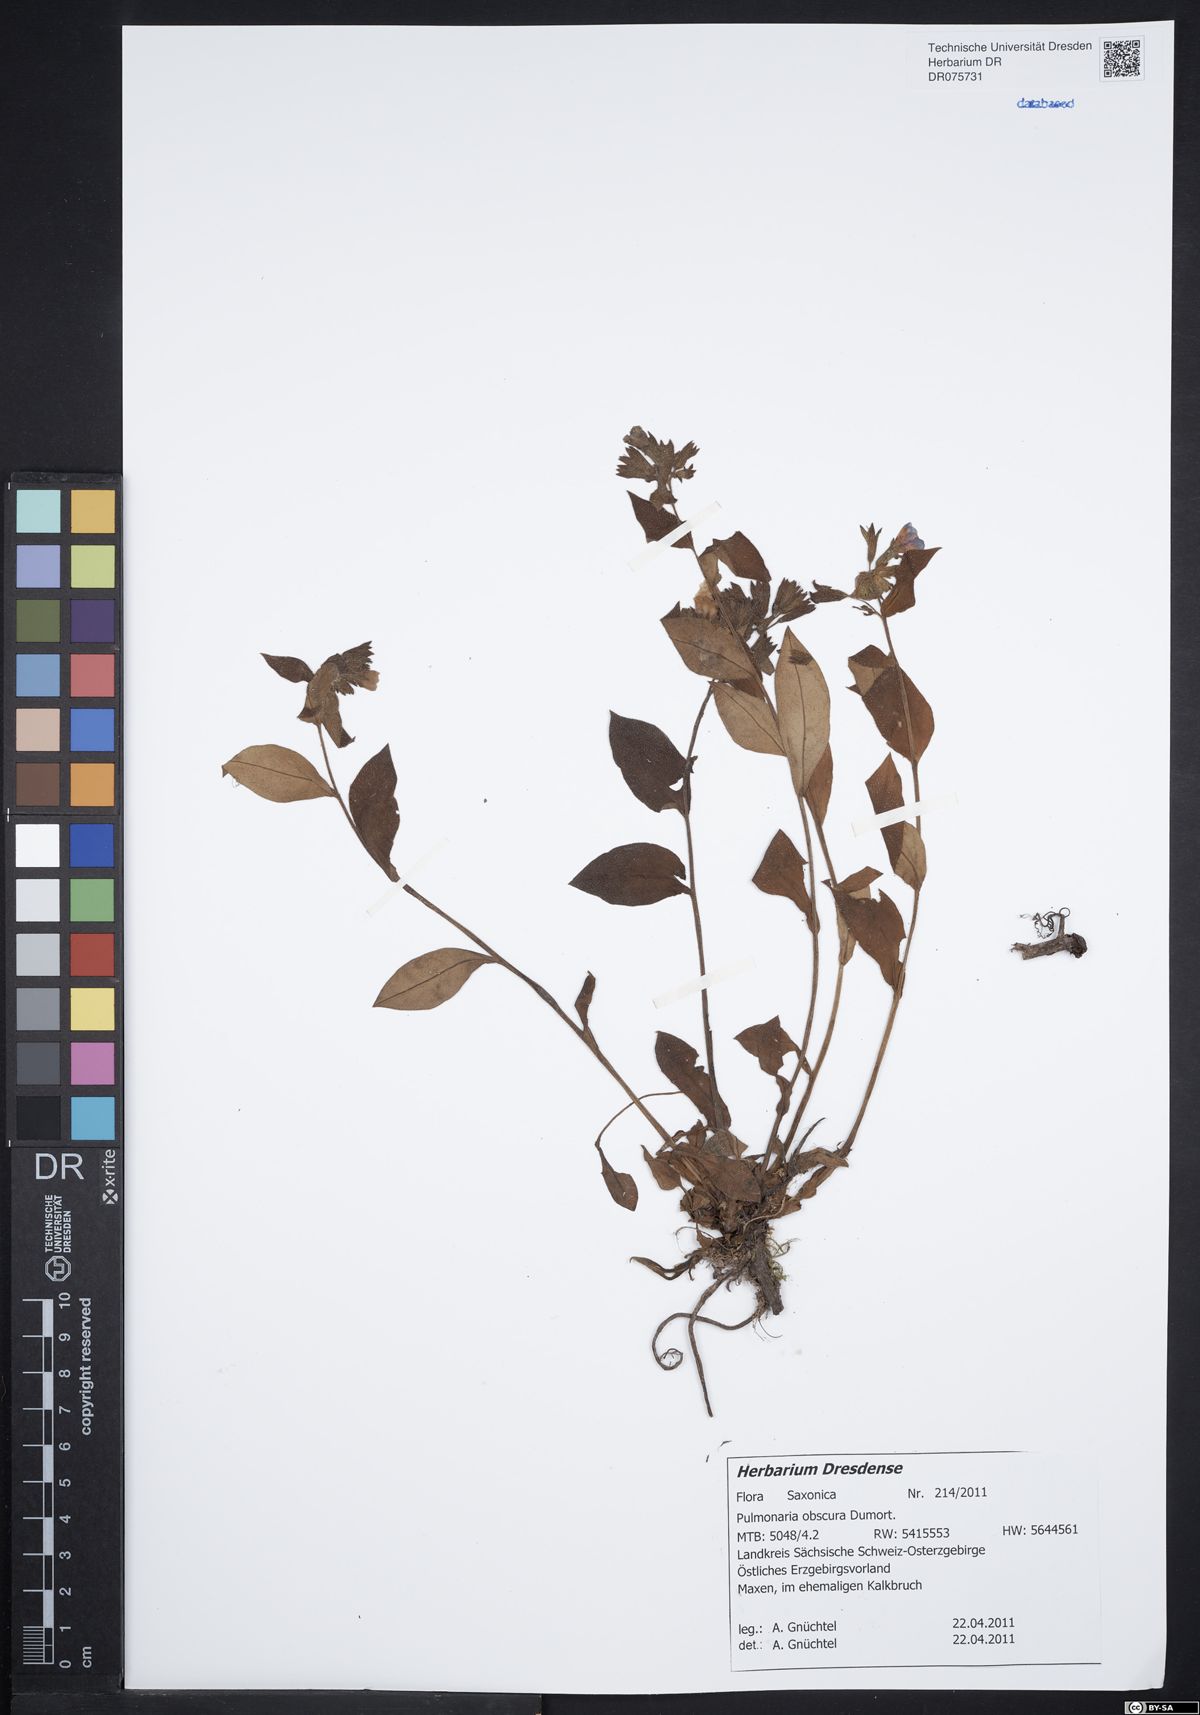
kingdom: Plantae
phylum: Tracheophyta
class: Magnoliopsida
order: Boraginales
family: Boraginaceae
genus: Pulmonaria
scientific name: Pulmonaria obscura
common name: Suffolk lungwort
